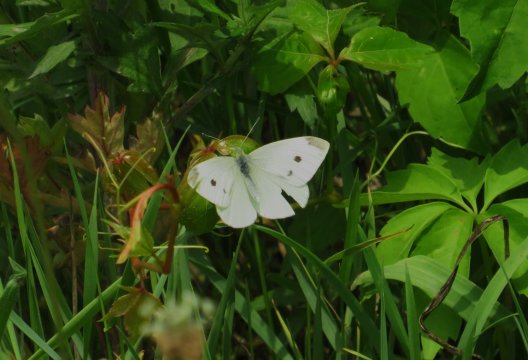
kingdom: Animalia
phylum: Arthropoda
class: Insecta
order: Lepidoptera
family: Pieridae
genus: Pieris
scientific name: Pieris rapae
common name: Cabbage White
